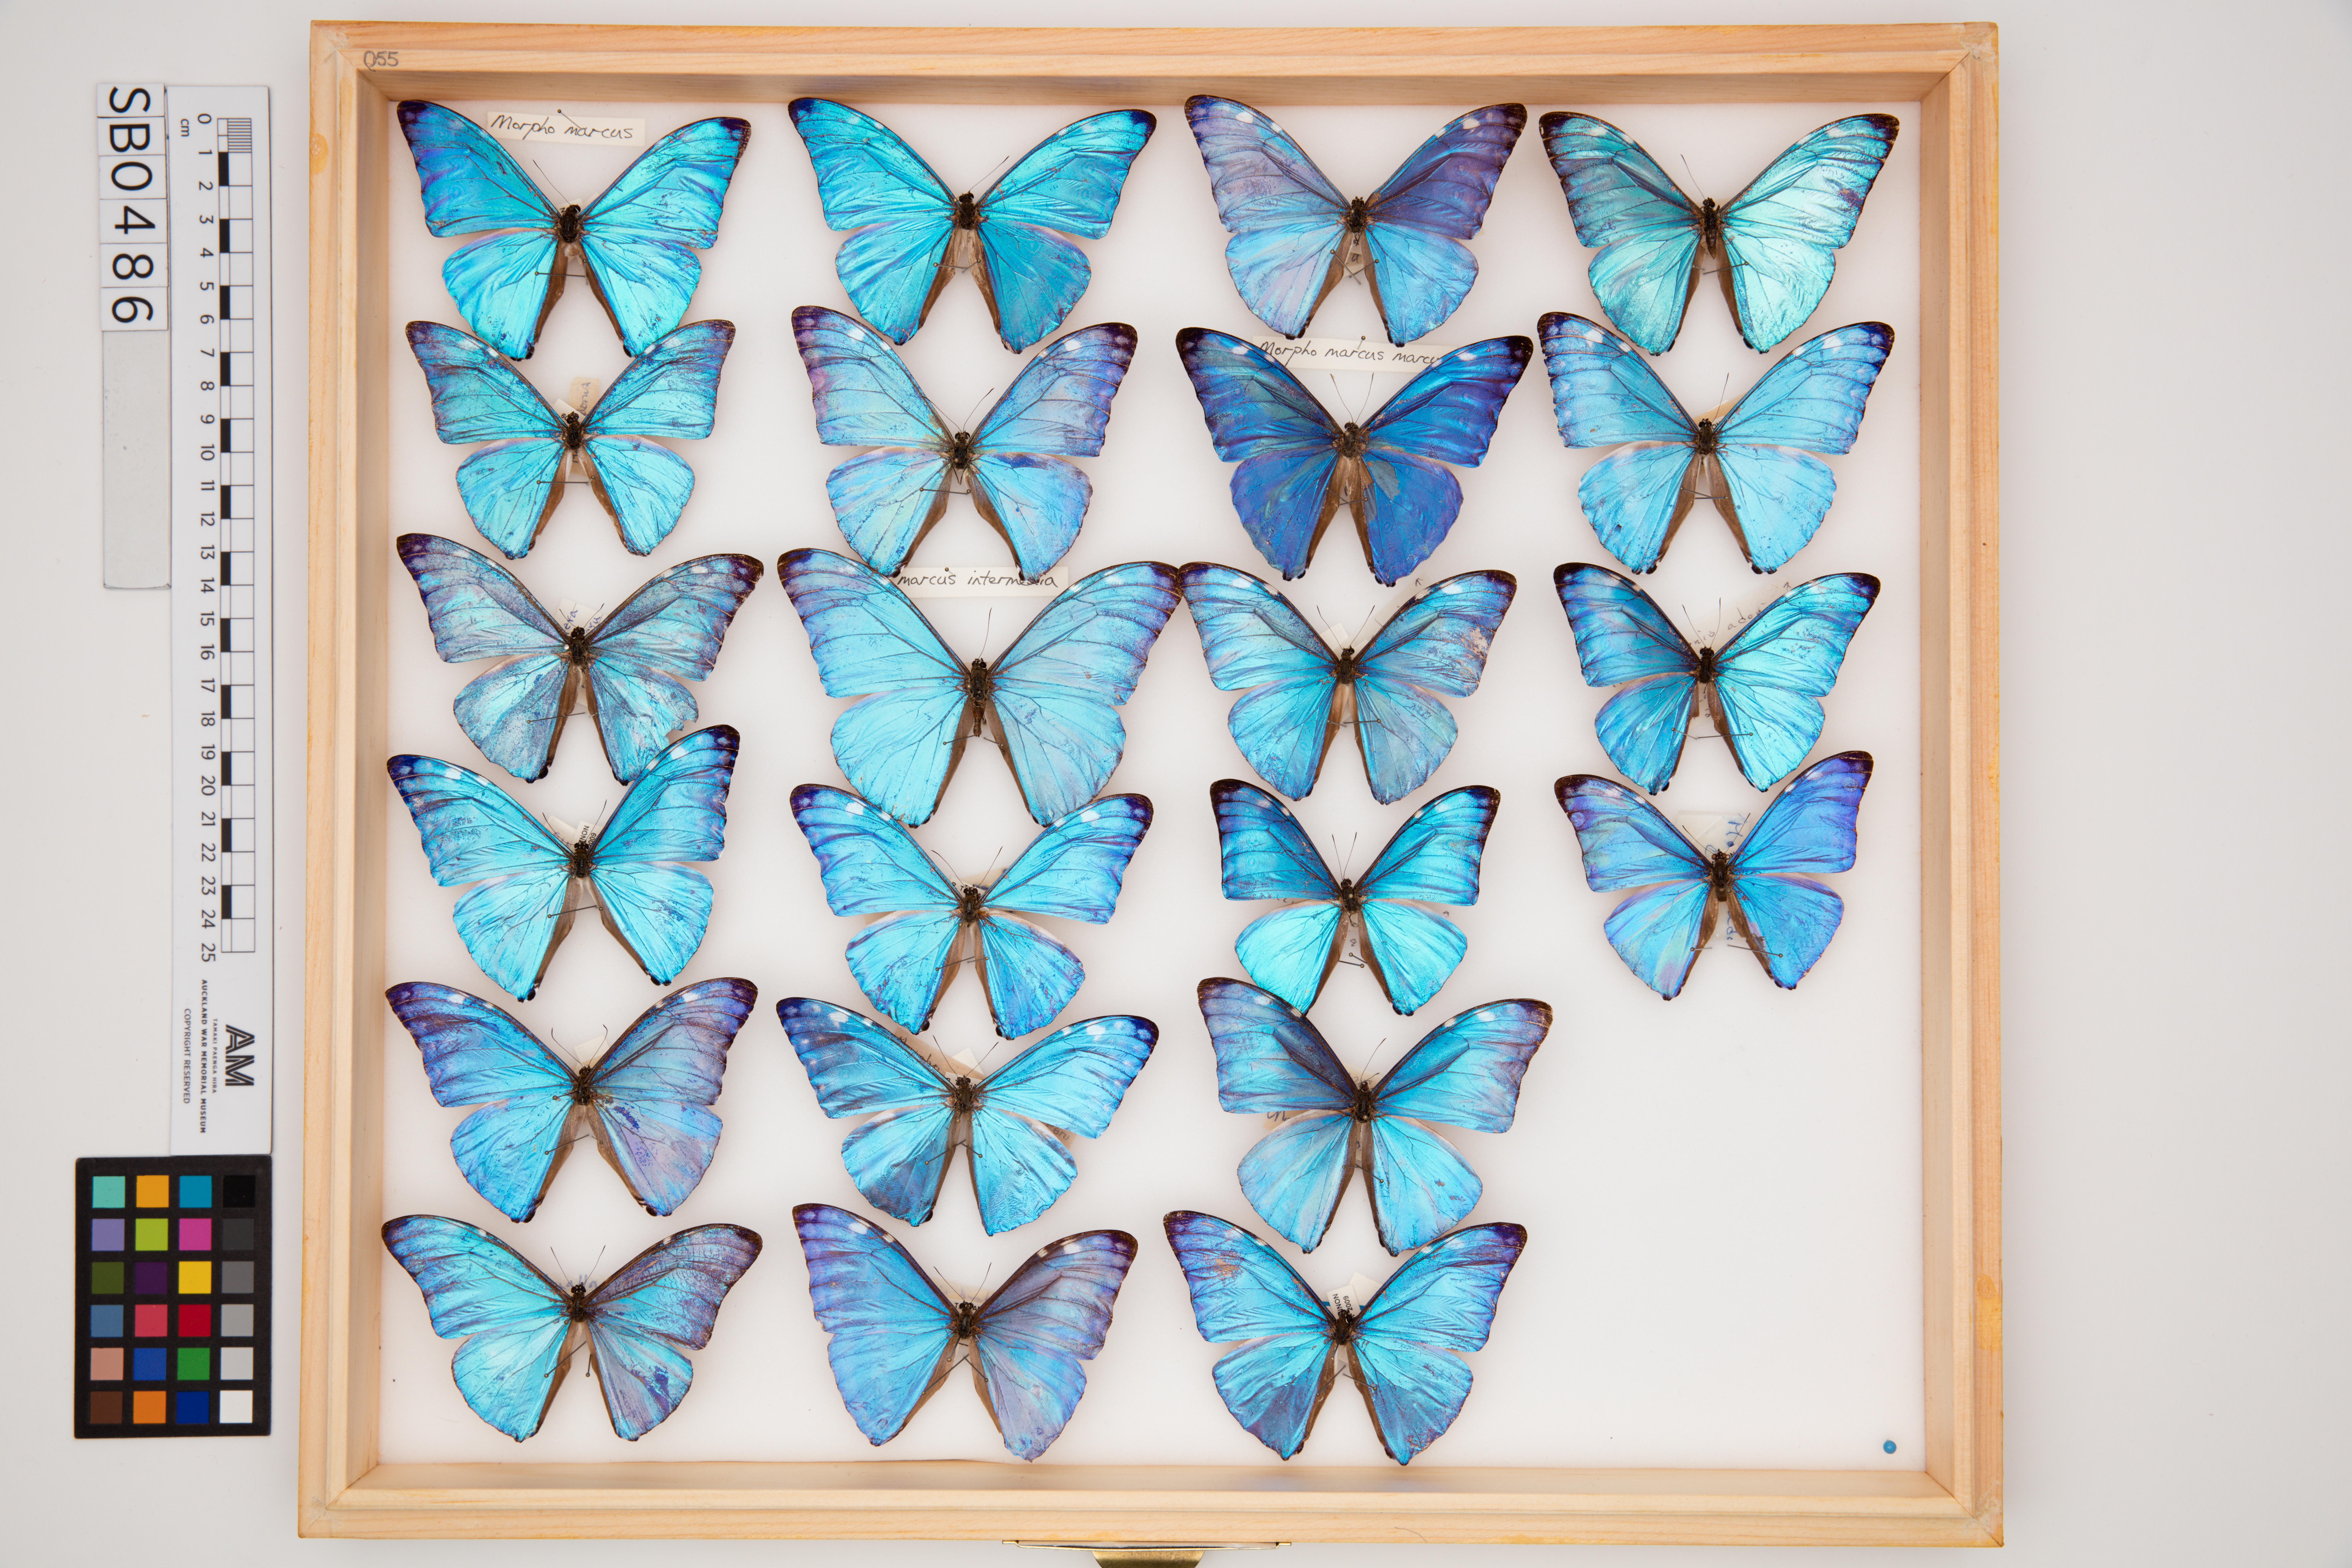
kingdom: Animalia
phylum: Arthropoda
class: Insecta
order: Lepidoptera
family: Nymphalidae
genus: Morpho
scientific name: Morpho marcus
